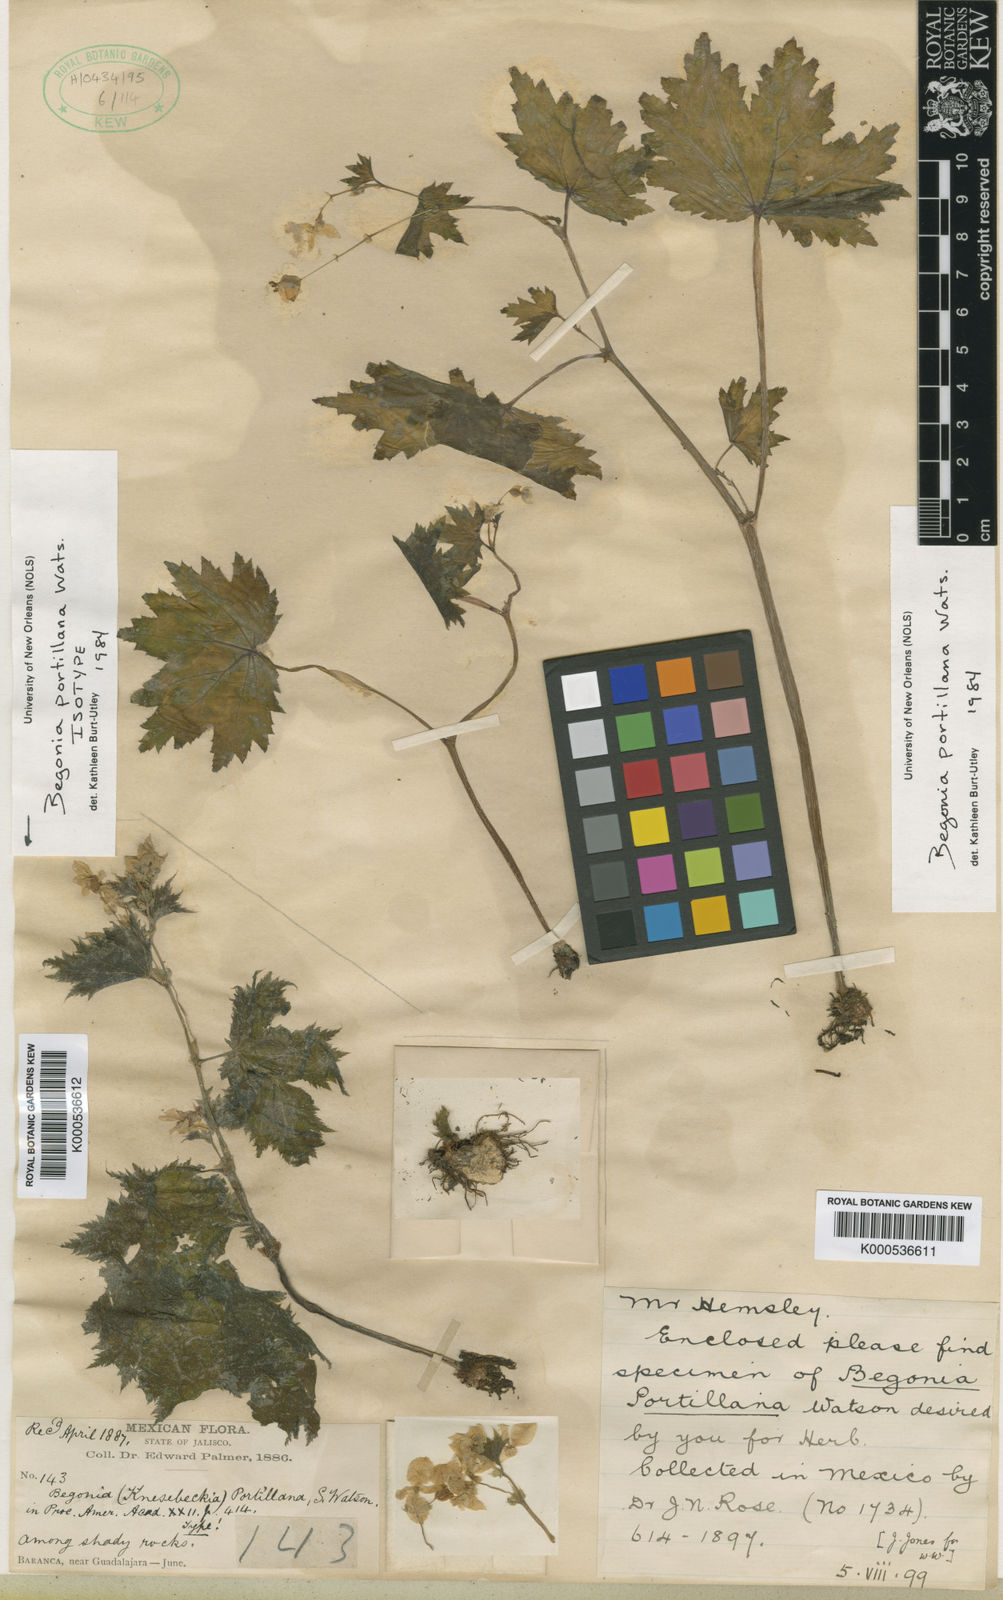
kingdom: Plantae
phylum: Tracheophyta
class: Magnoliopsida
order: Cucurbitales
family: Begoniaceae
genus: Begonia
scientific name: Begonia portillana
